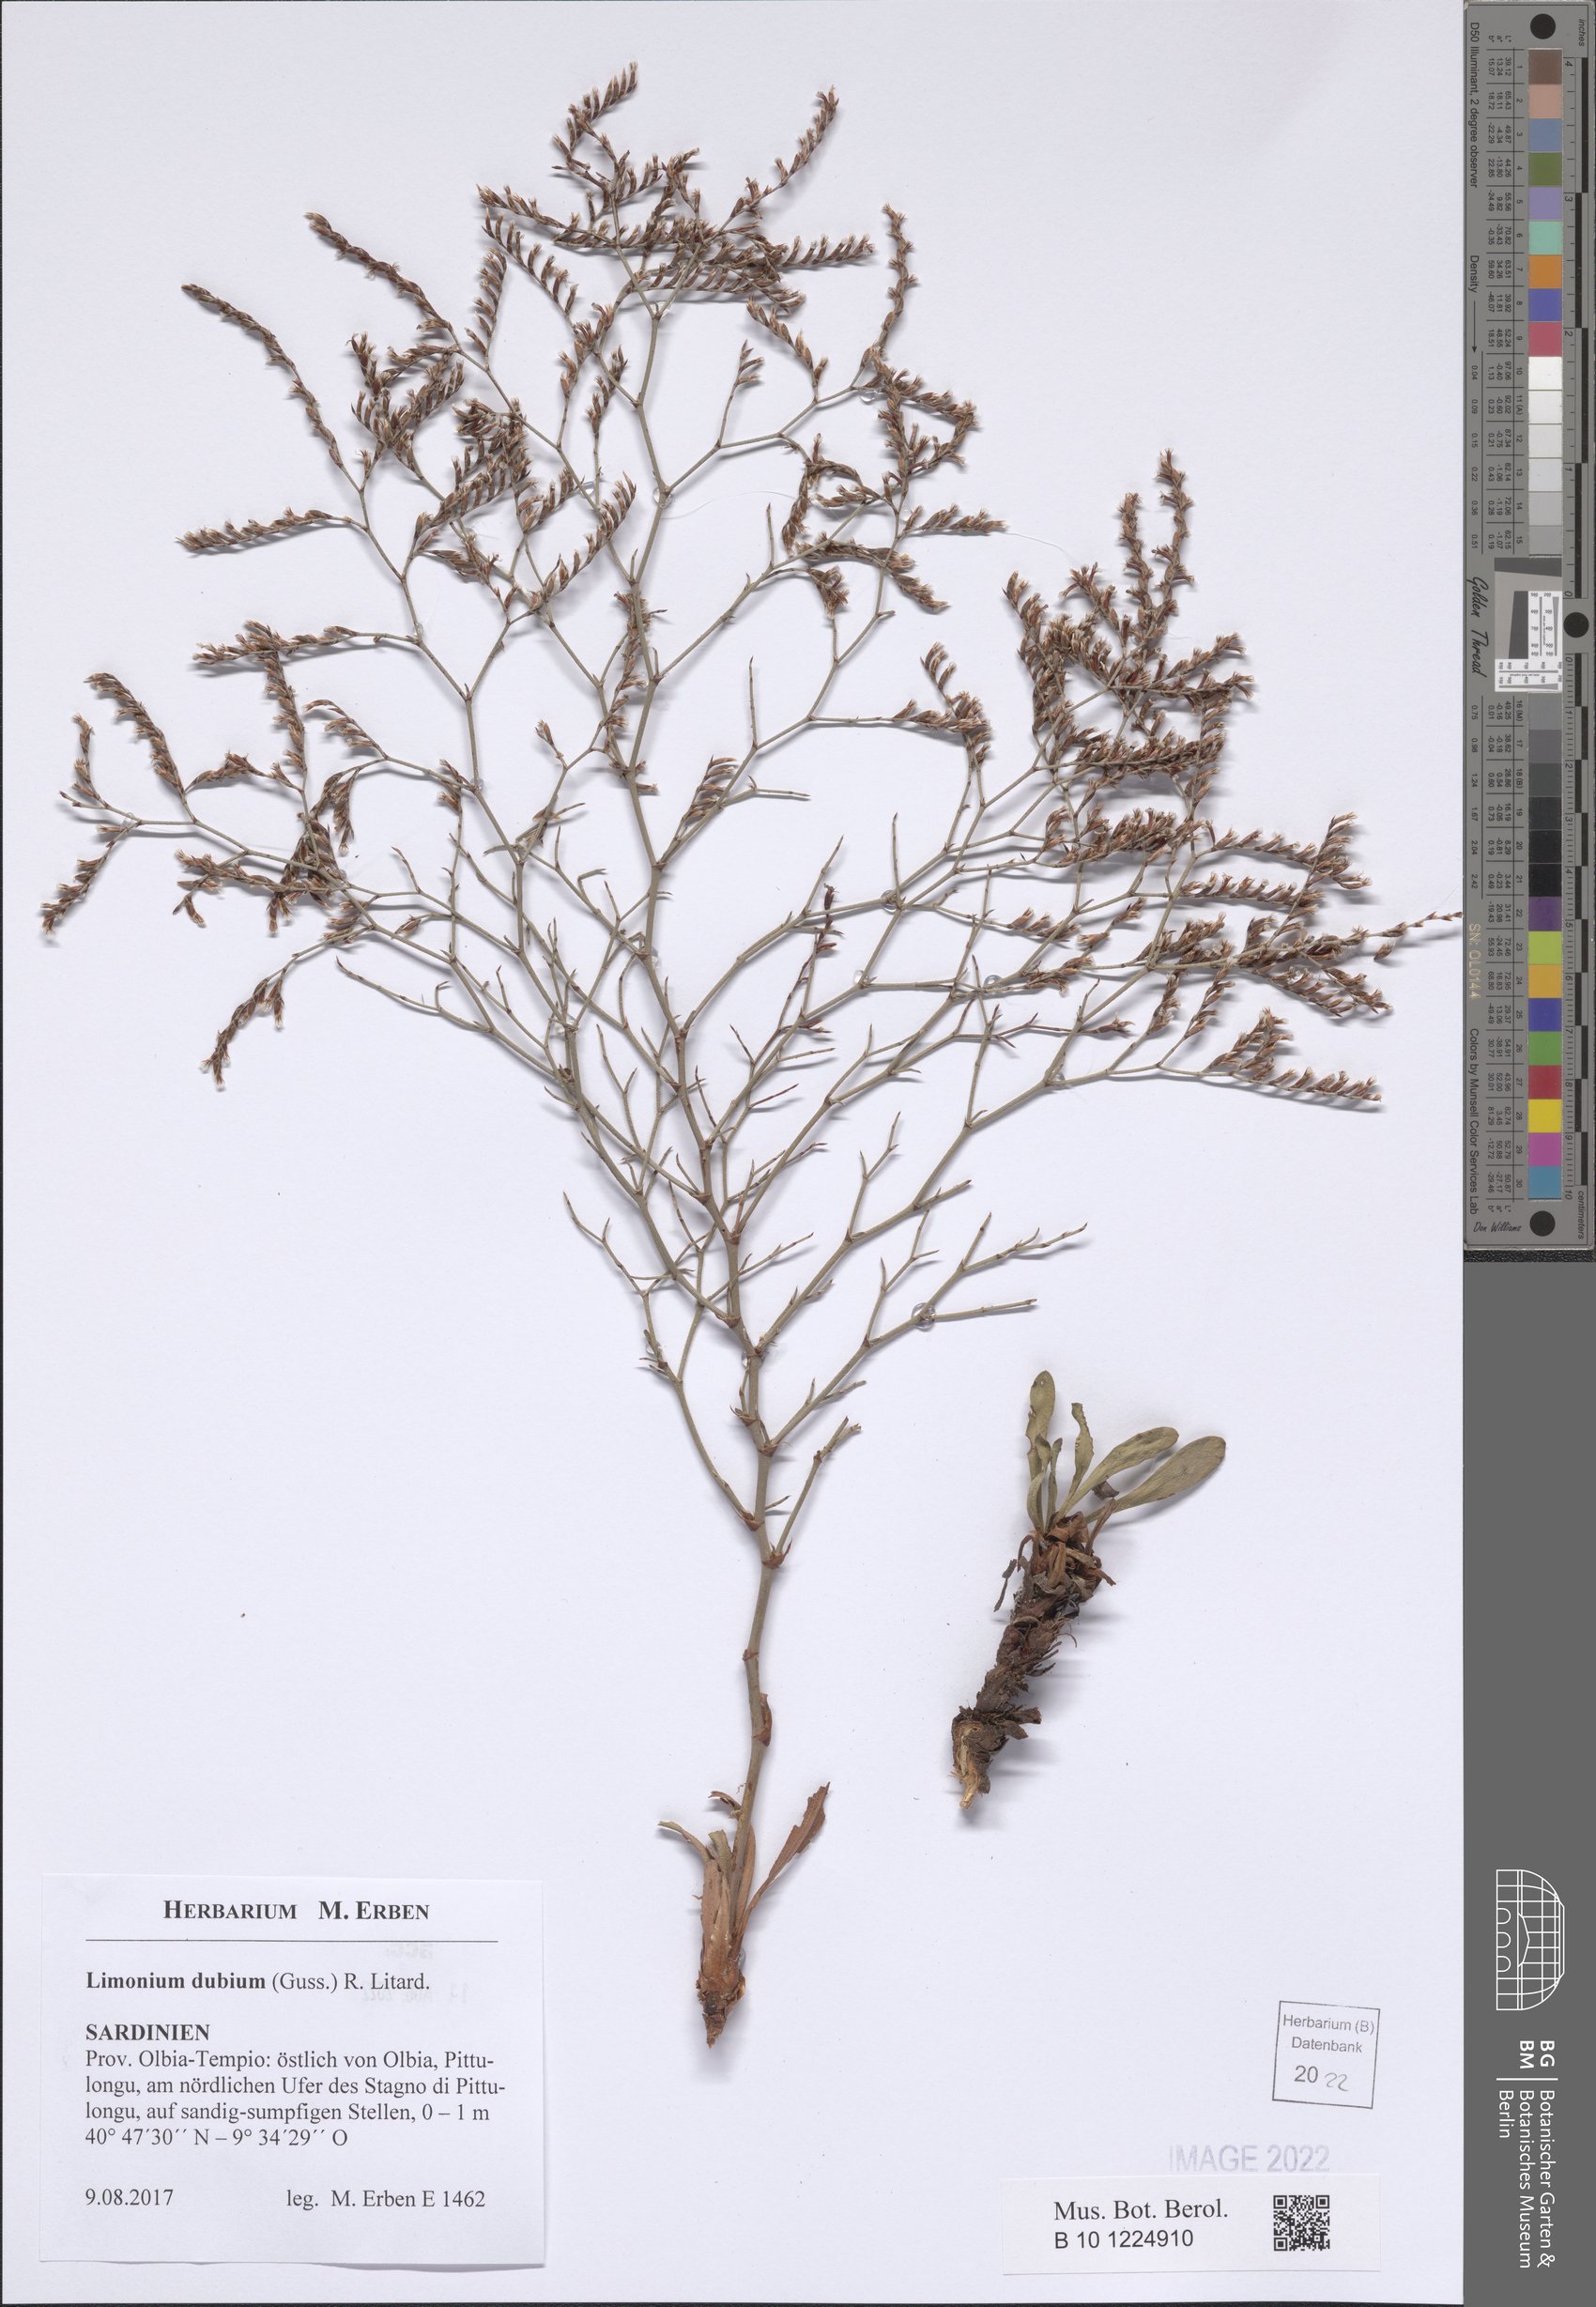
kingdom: Plantae
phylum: Tracheophyta
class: Magnoliopsida
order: Caryophyllales
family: Plumbaginaceae
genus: Limonium
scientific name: Limonium dubium
